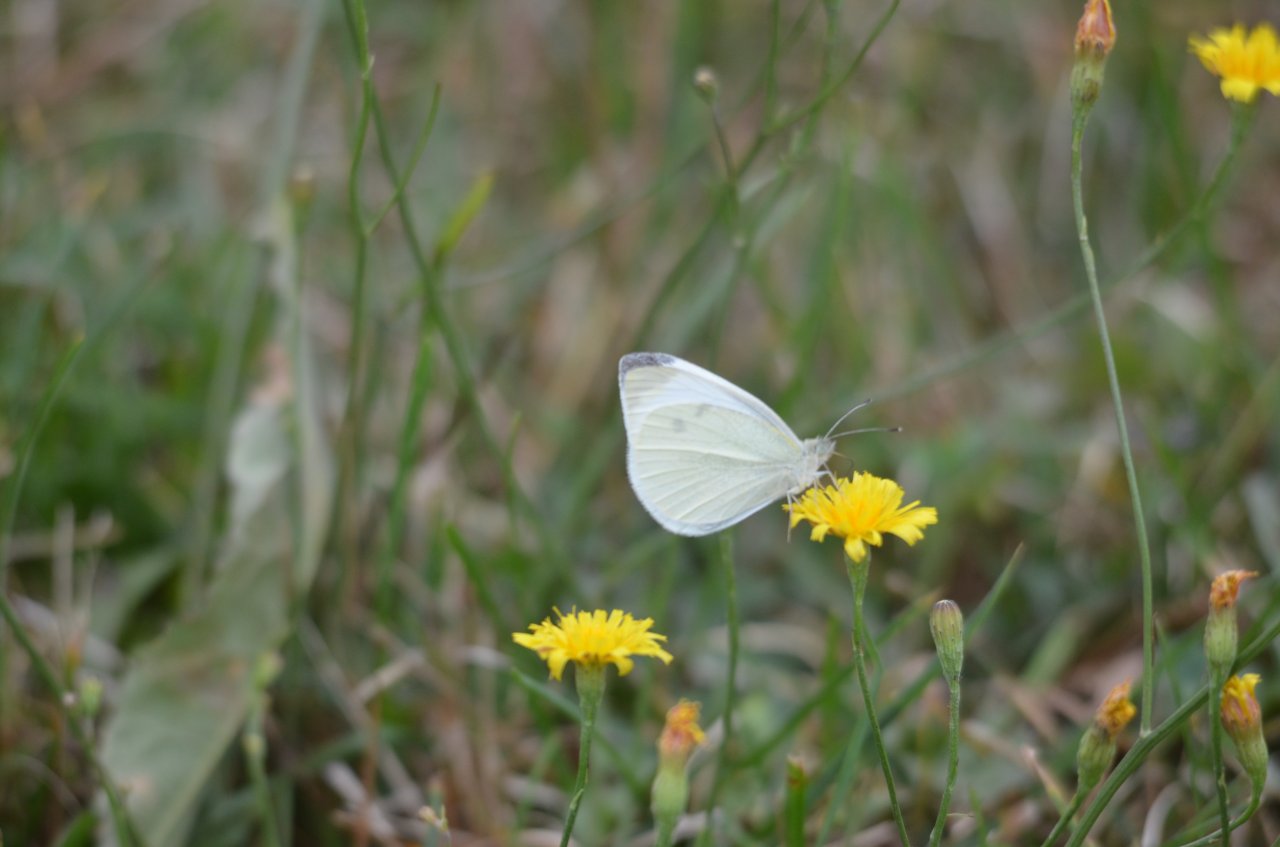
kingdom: Animalia
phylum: Arthropoda
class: Insecta
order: Lepidoptera
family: Pieridae
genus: Pieris
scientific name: Pieris rapae
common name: Cabbage White
